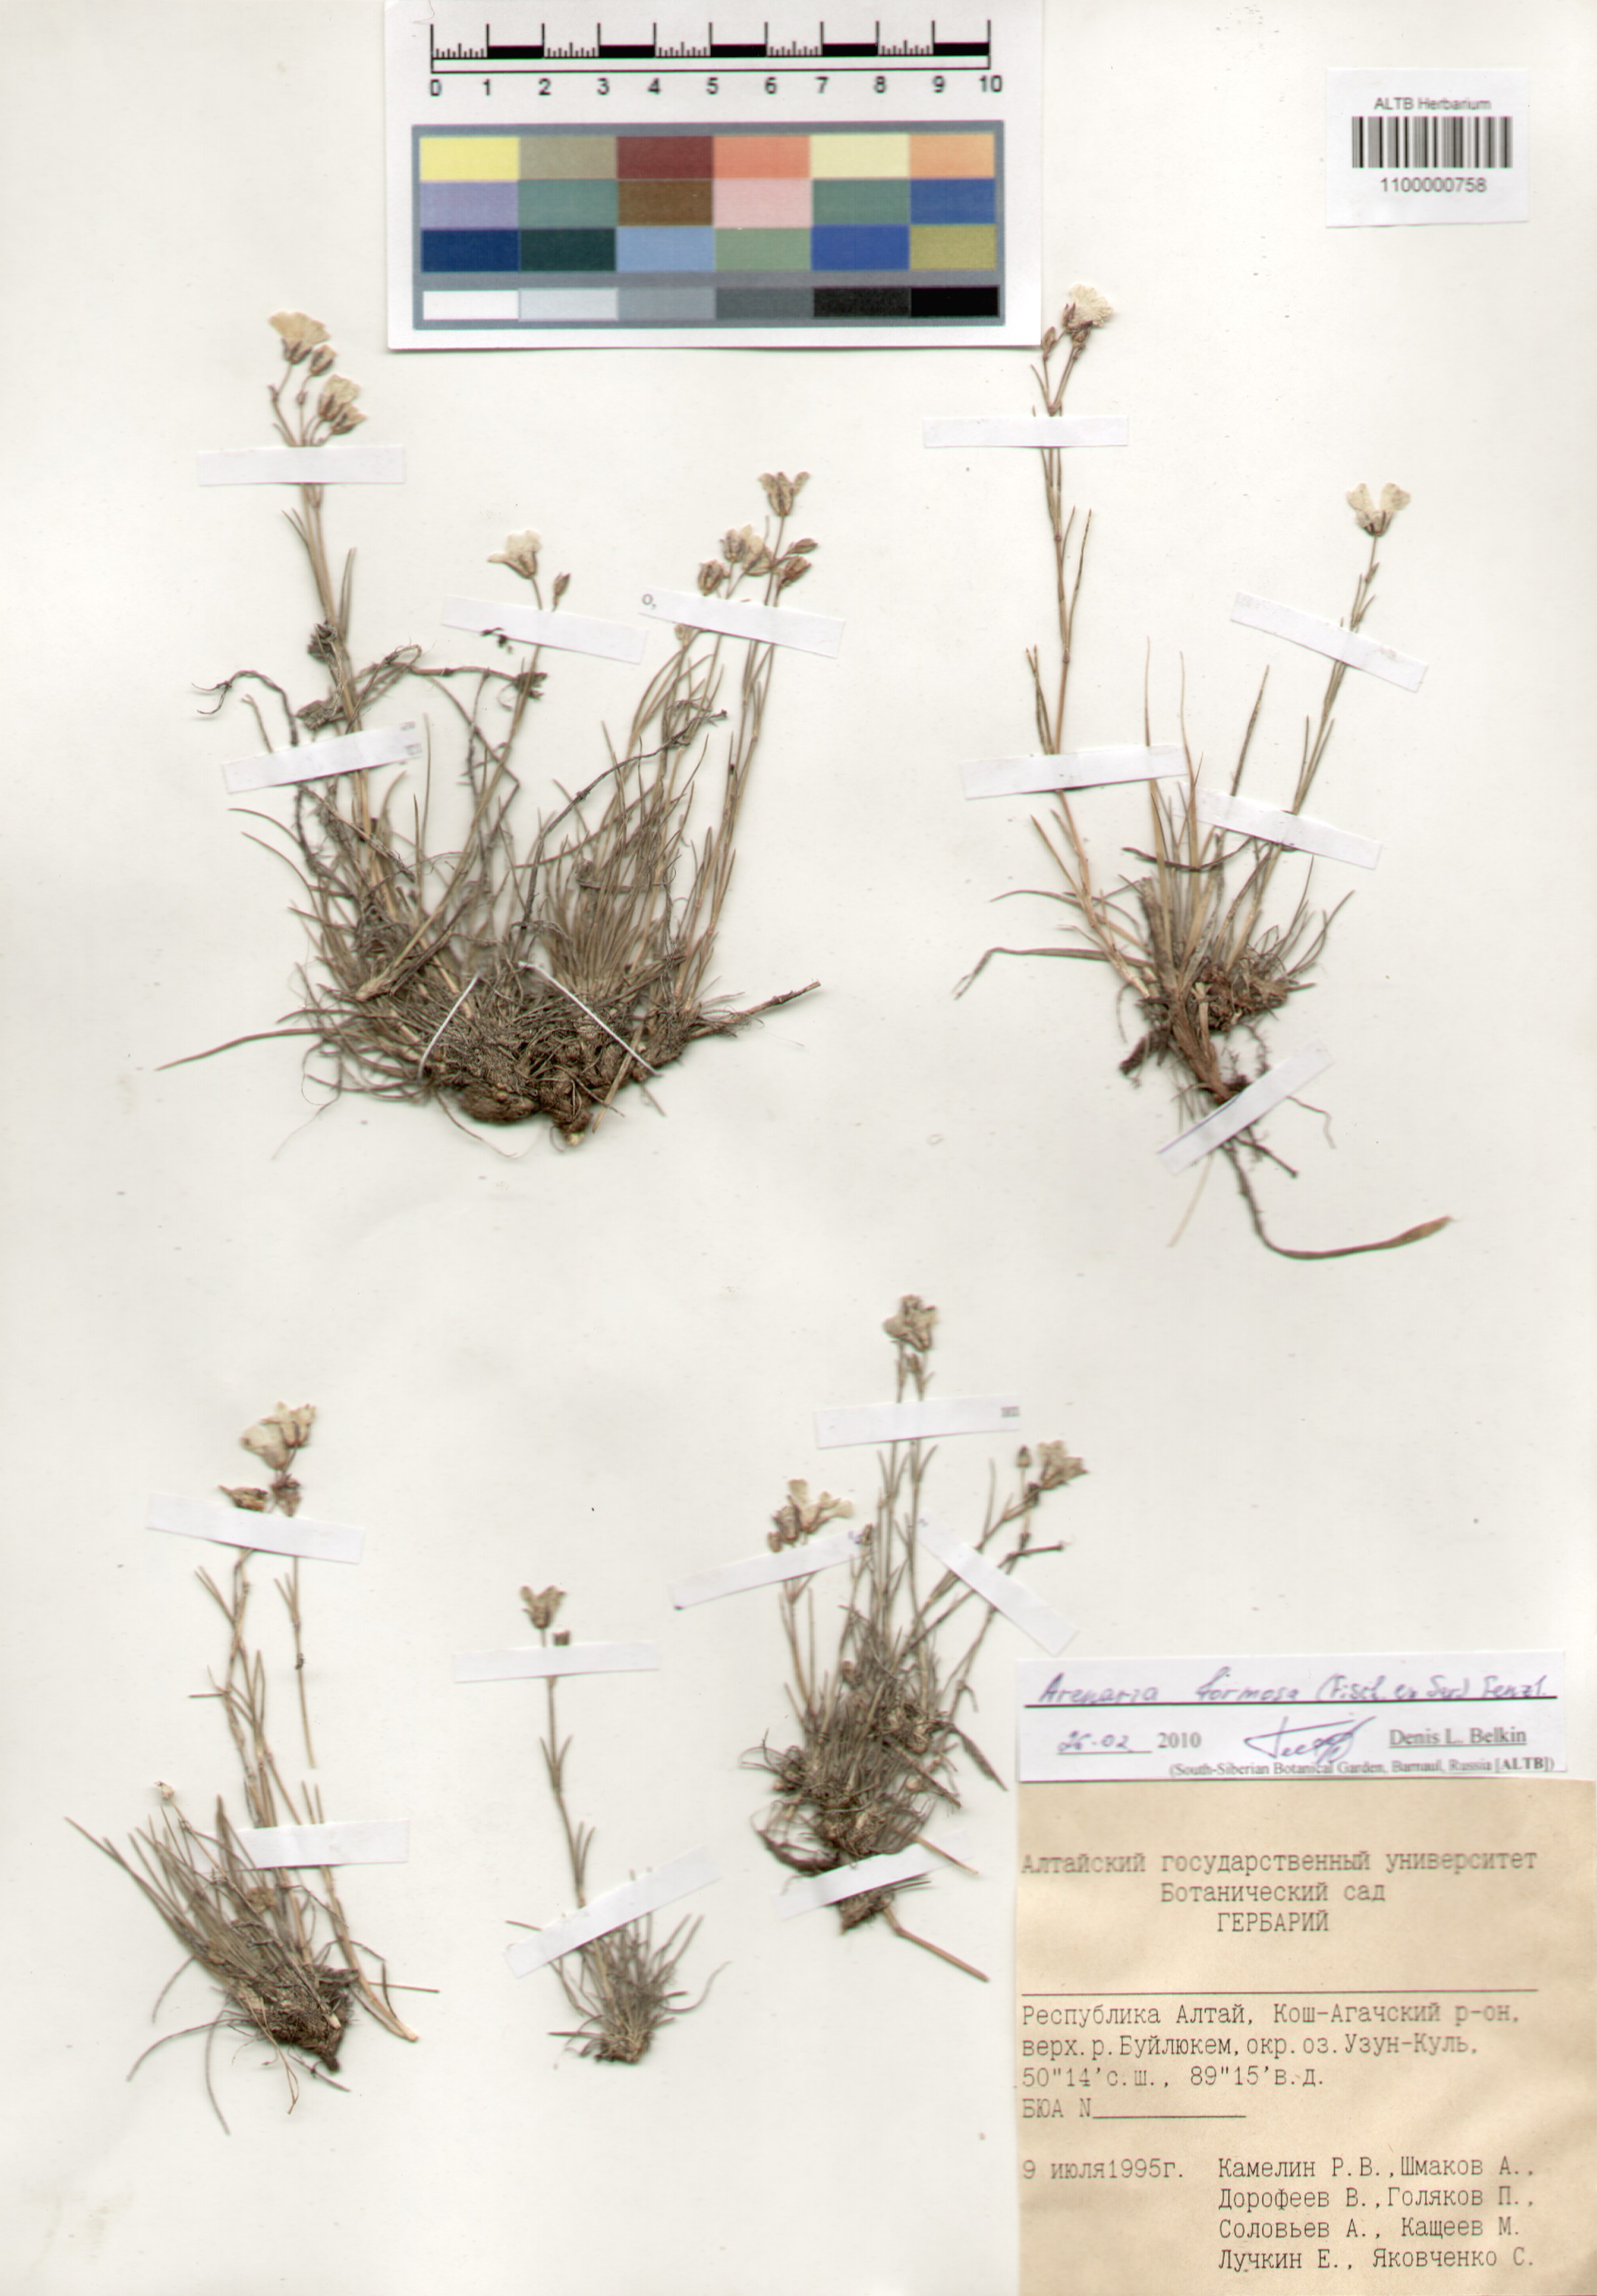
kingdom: Plantae
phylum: Tracheophyta
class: Magnoliopsida
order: Caryophyllales
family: Caryophyllaceae
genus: Eremogone
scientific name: Eremogone formosa
